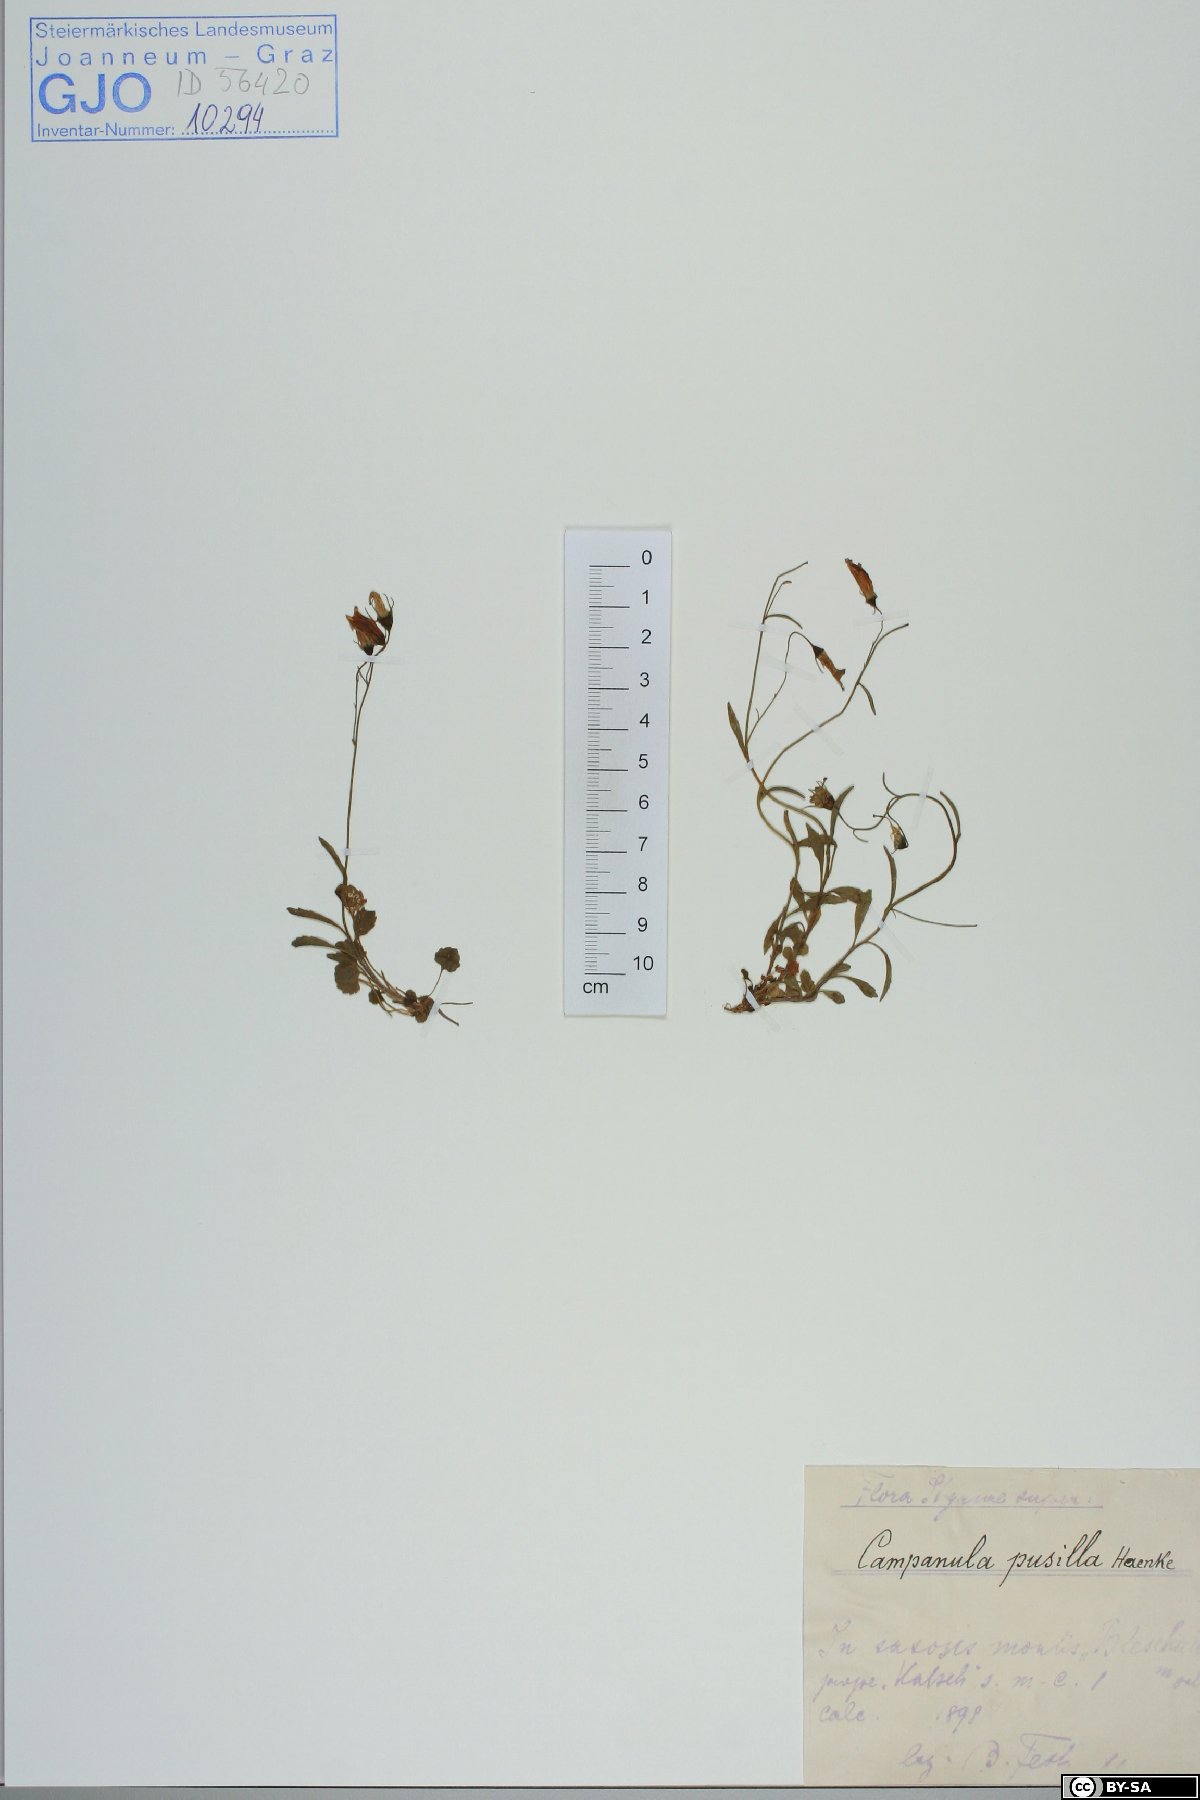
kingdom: Plantae
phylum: Tracheophyta
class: Magnoliopsida
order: Asterales
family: Campanulaceae
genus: Campanula
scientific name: Campanula cochleariifolia
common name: Fairies'-thimbles
